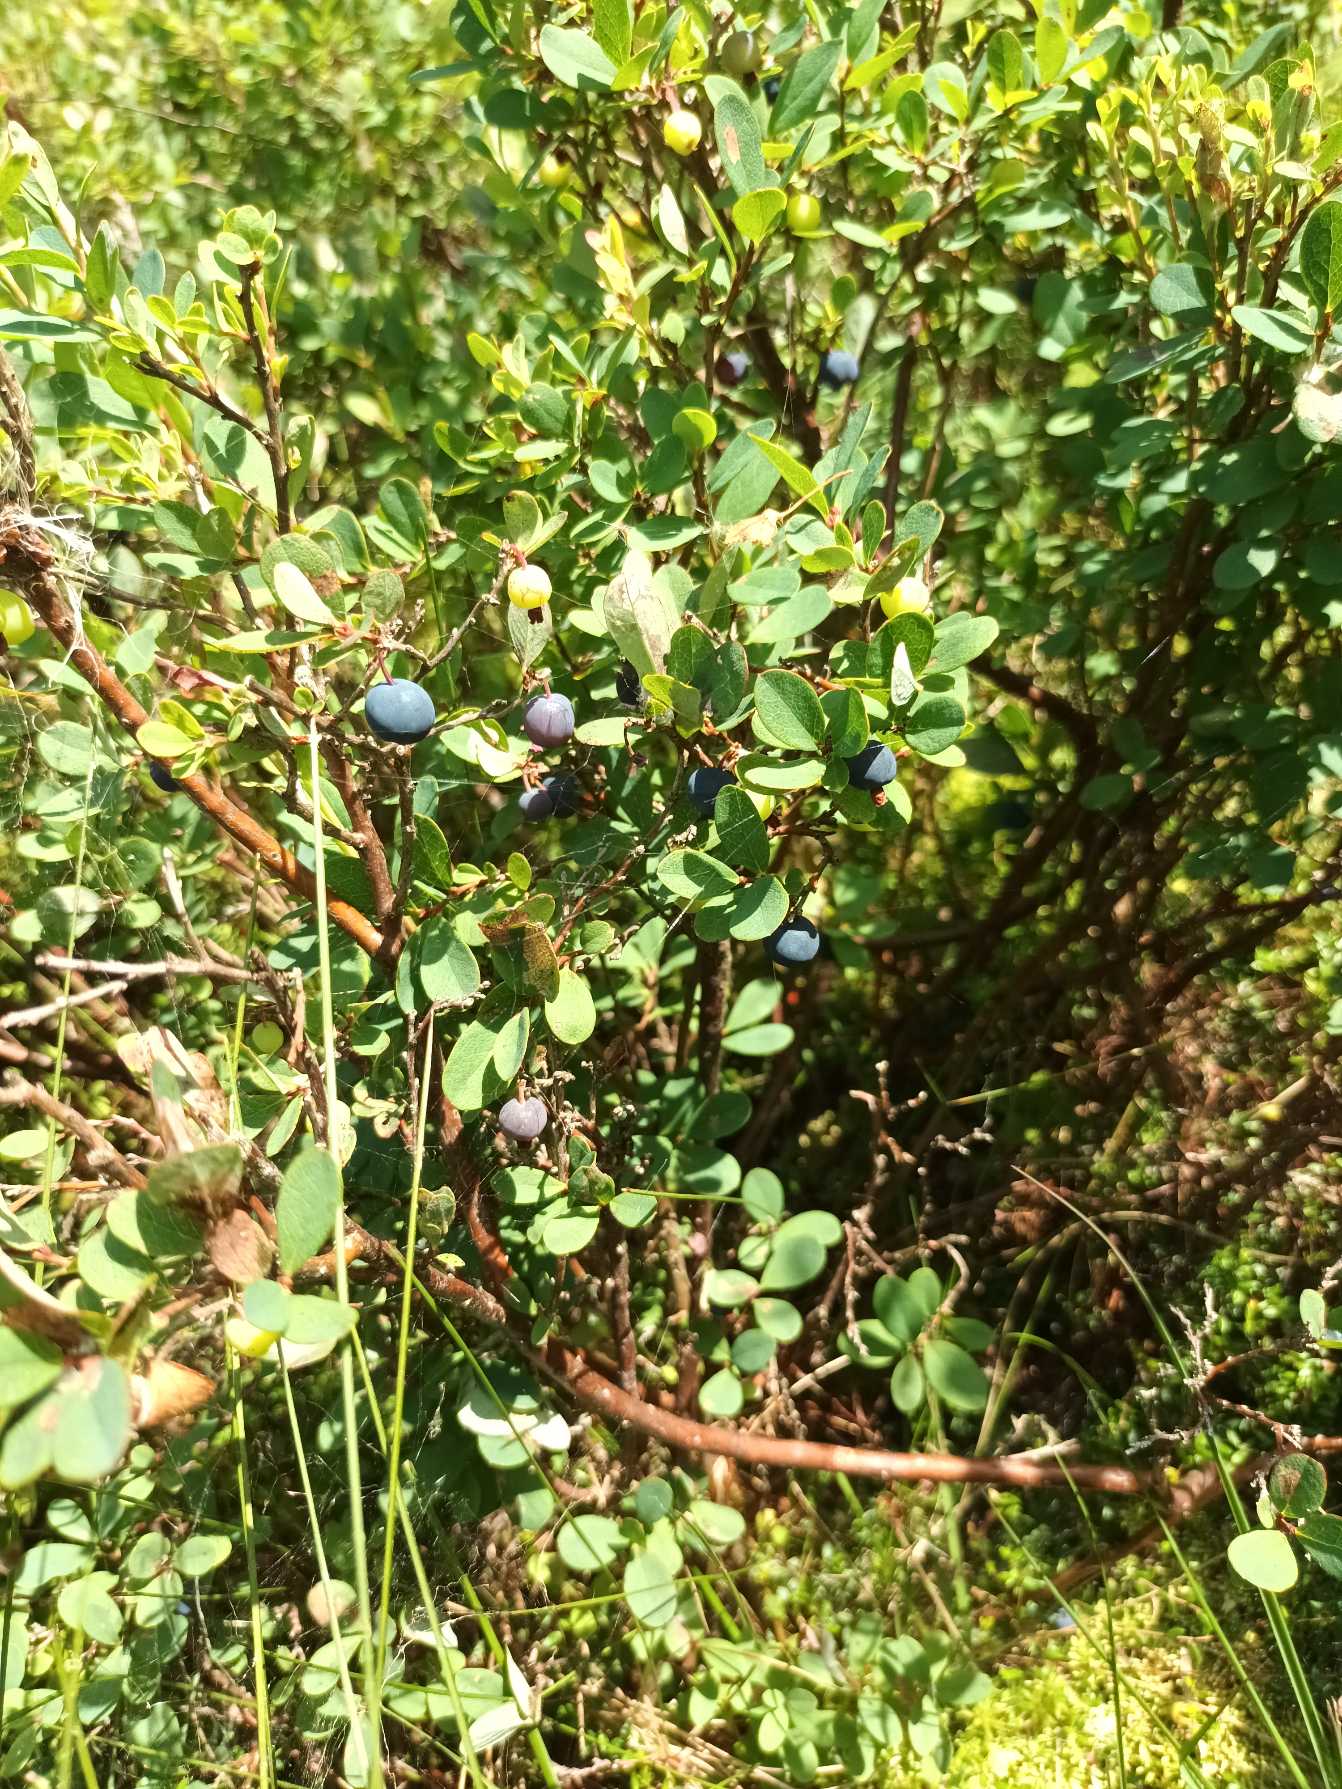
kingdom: Plantae
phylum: Tracheophyta
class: Magnoliopsida
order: Ericales
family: Ericaceae
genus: Vaccinium
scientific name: Vaccinium uliginosum
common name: Mose-bølle
